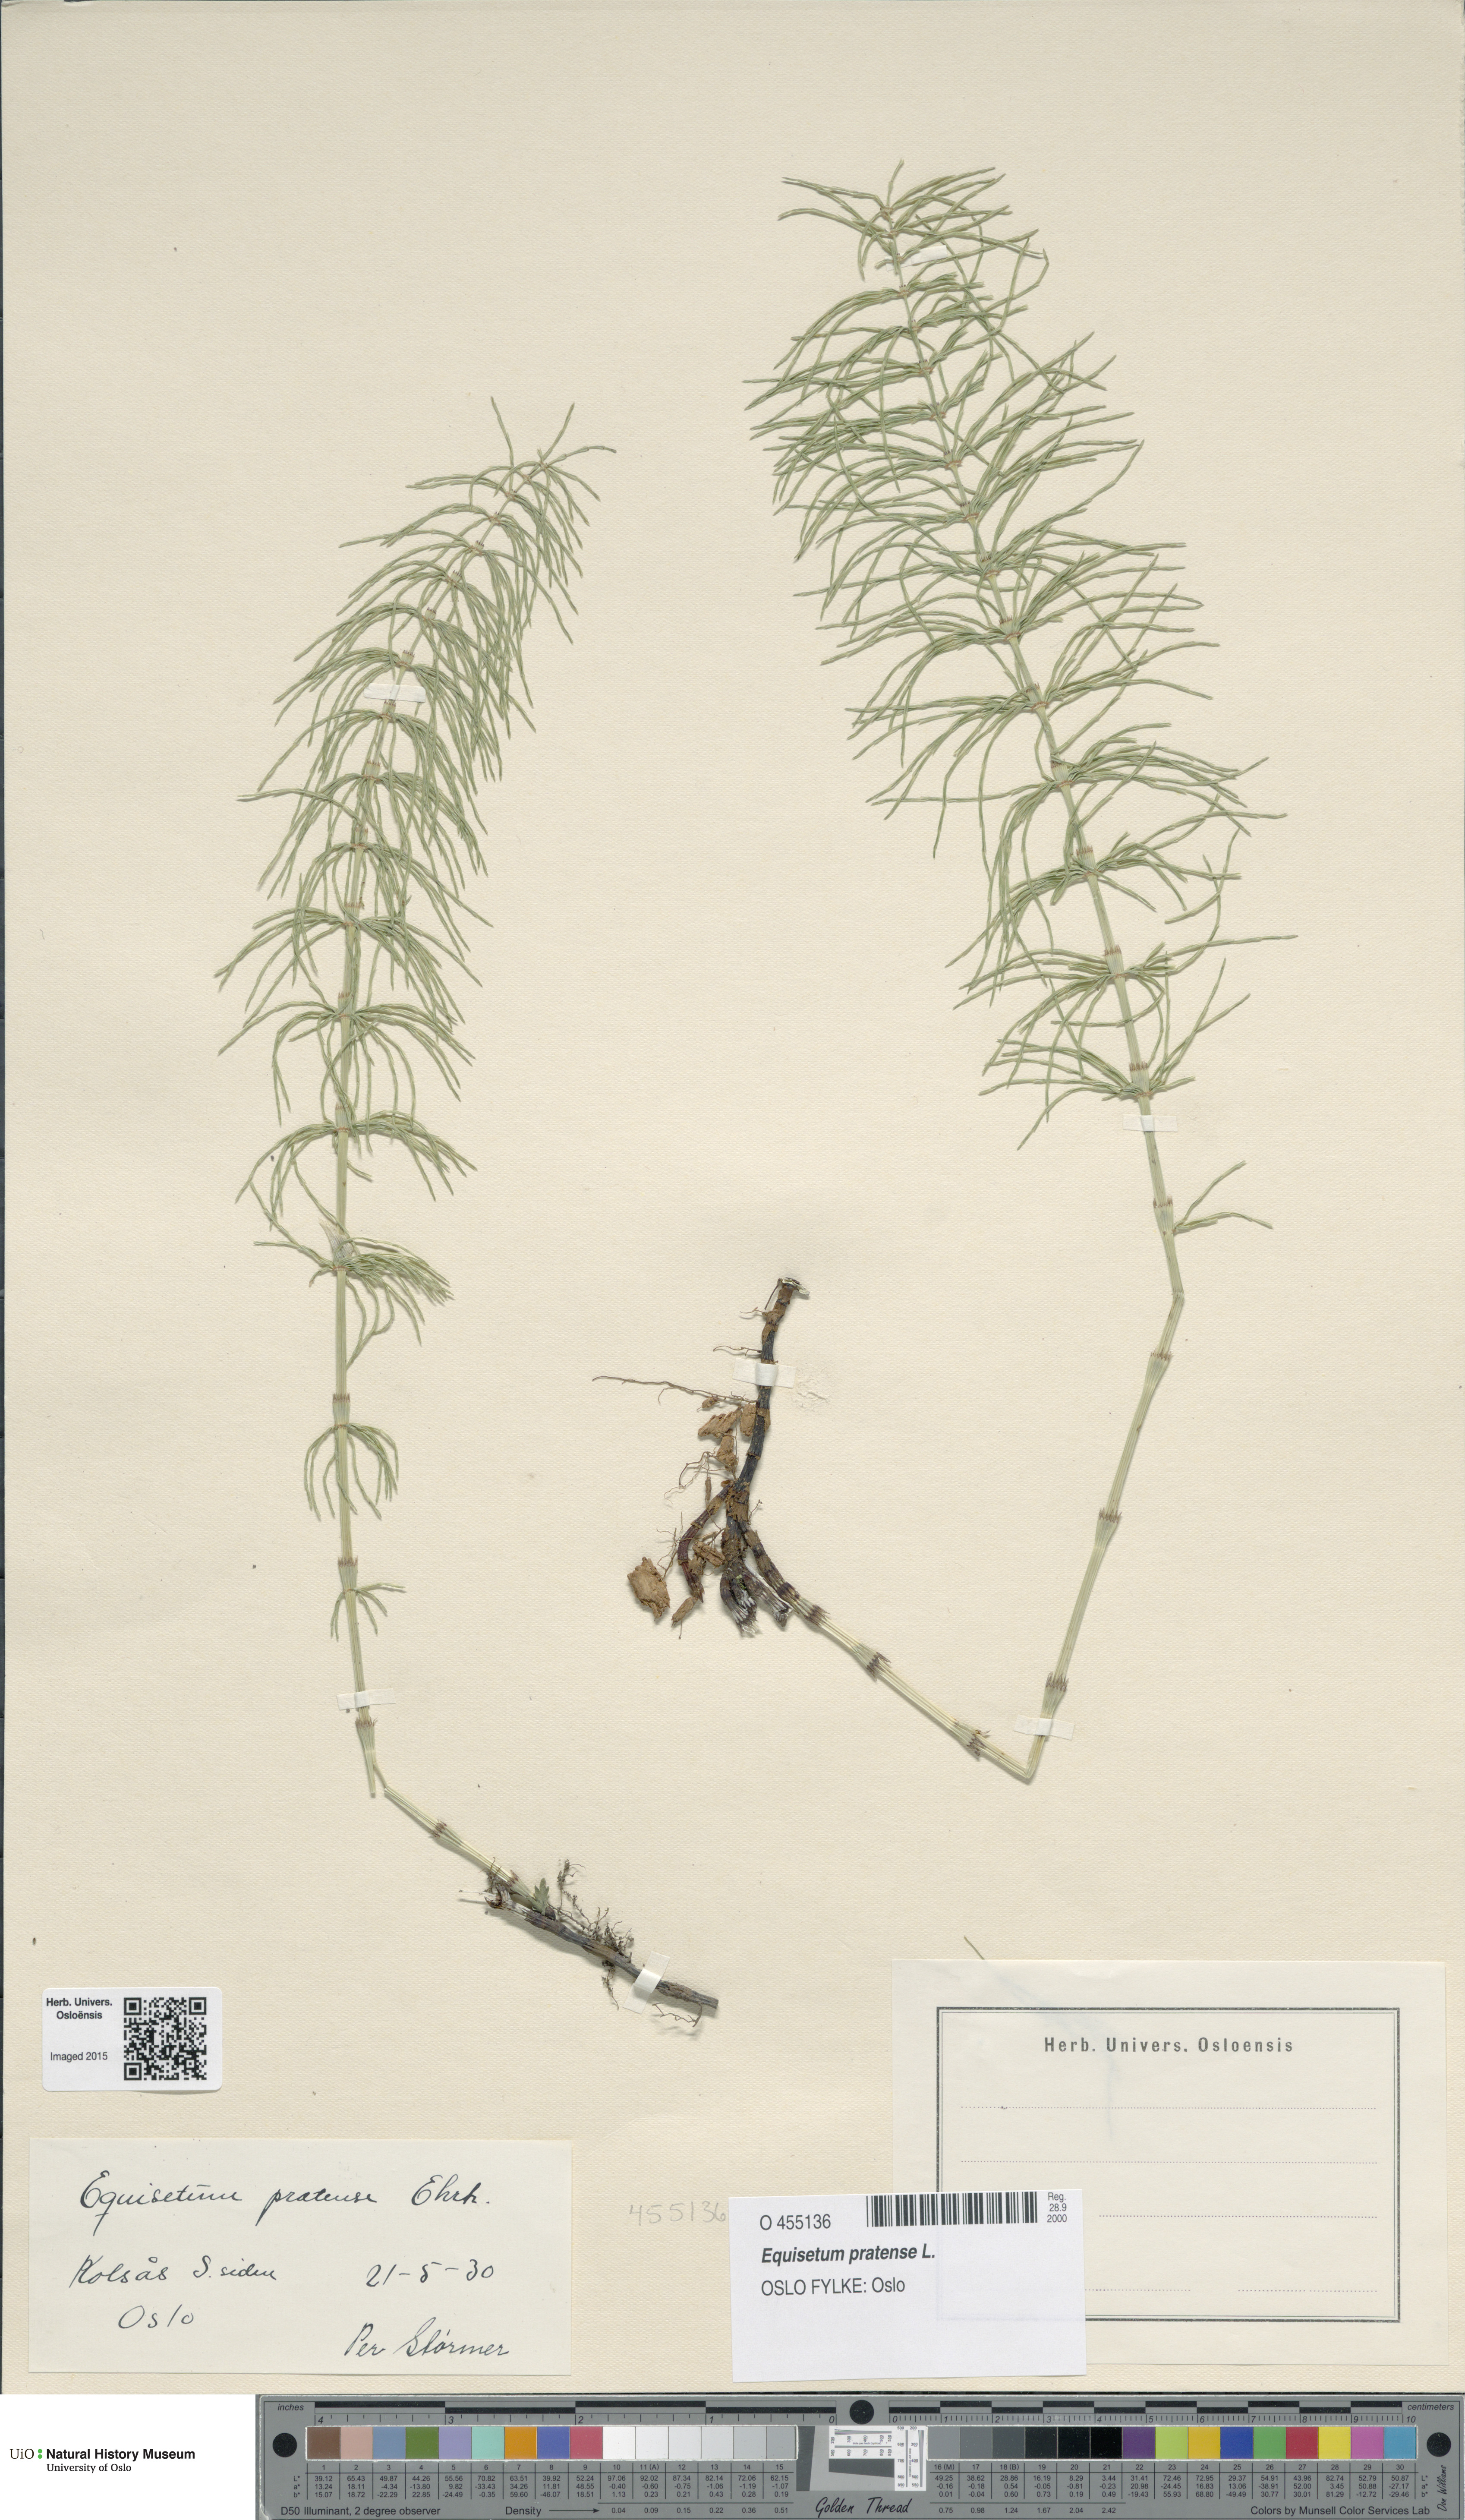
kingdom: Plantae
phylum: Tracheophyta
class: Polypodiopsida
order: Equisetales
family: Equisetaceae
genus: Equisetum
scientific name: Equisetum pratense
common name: Meadow horsetail
